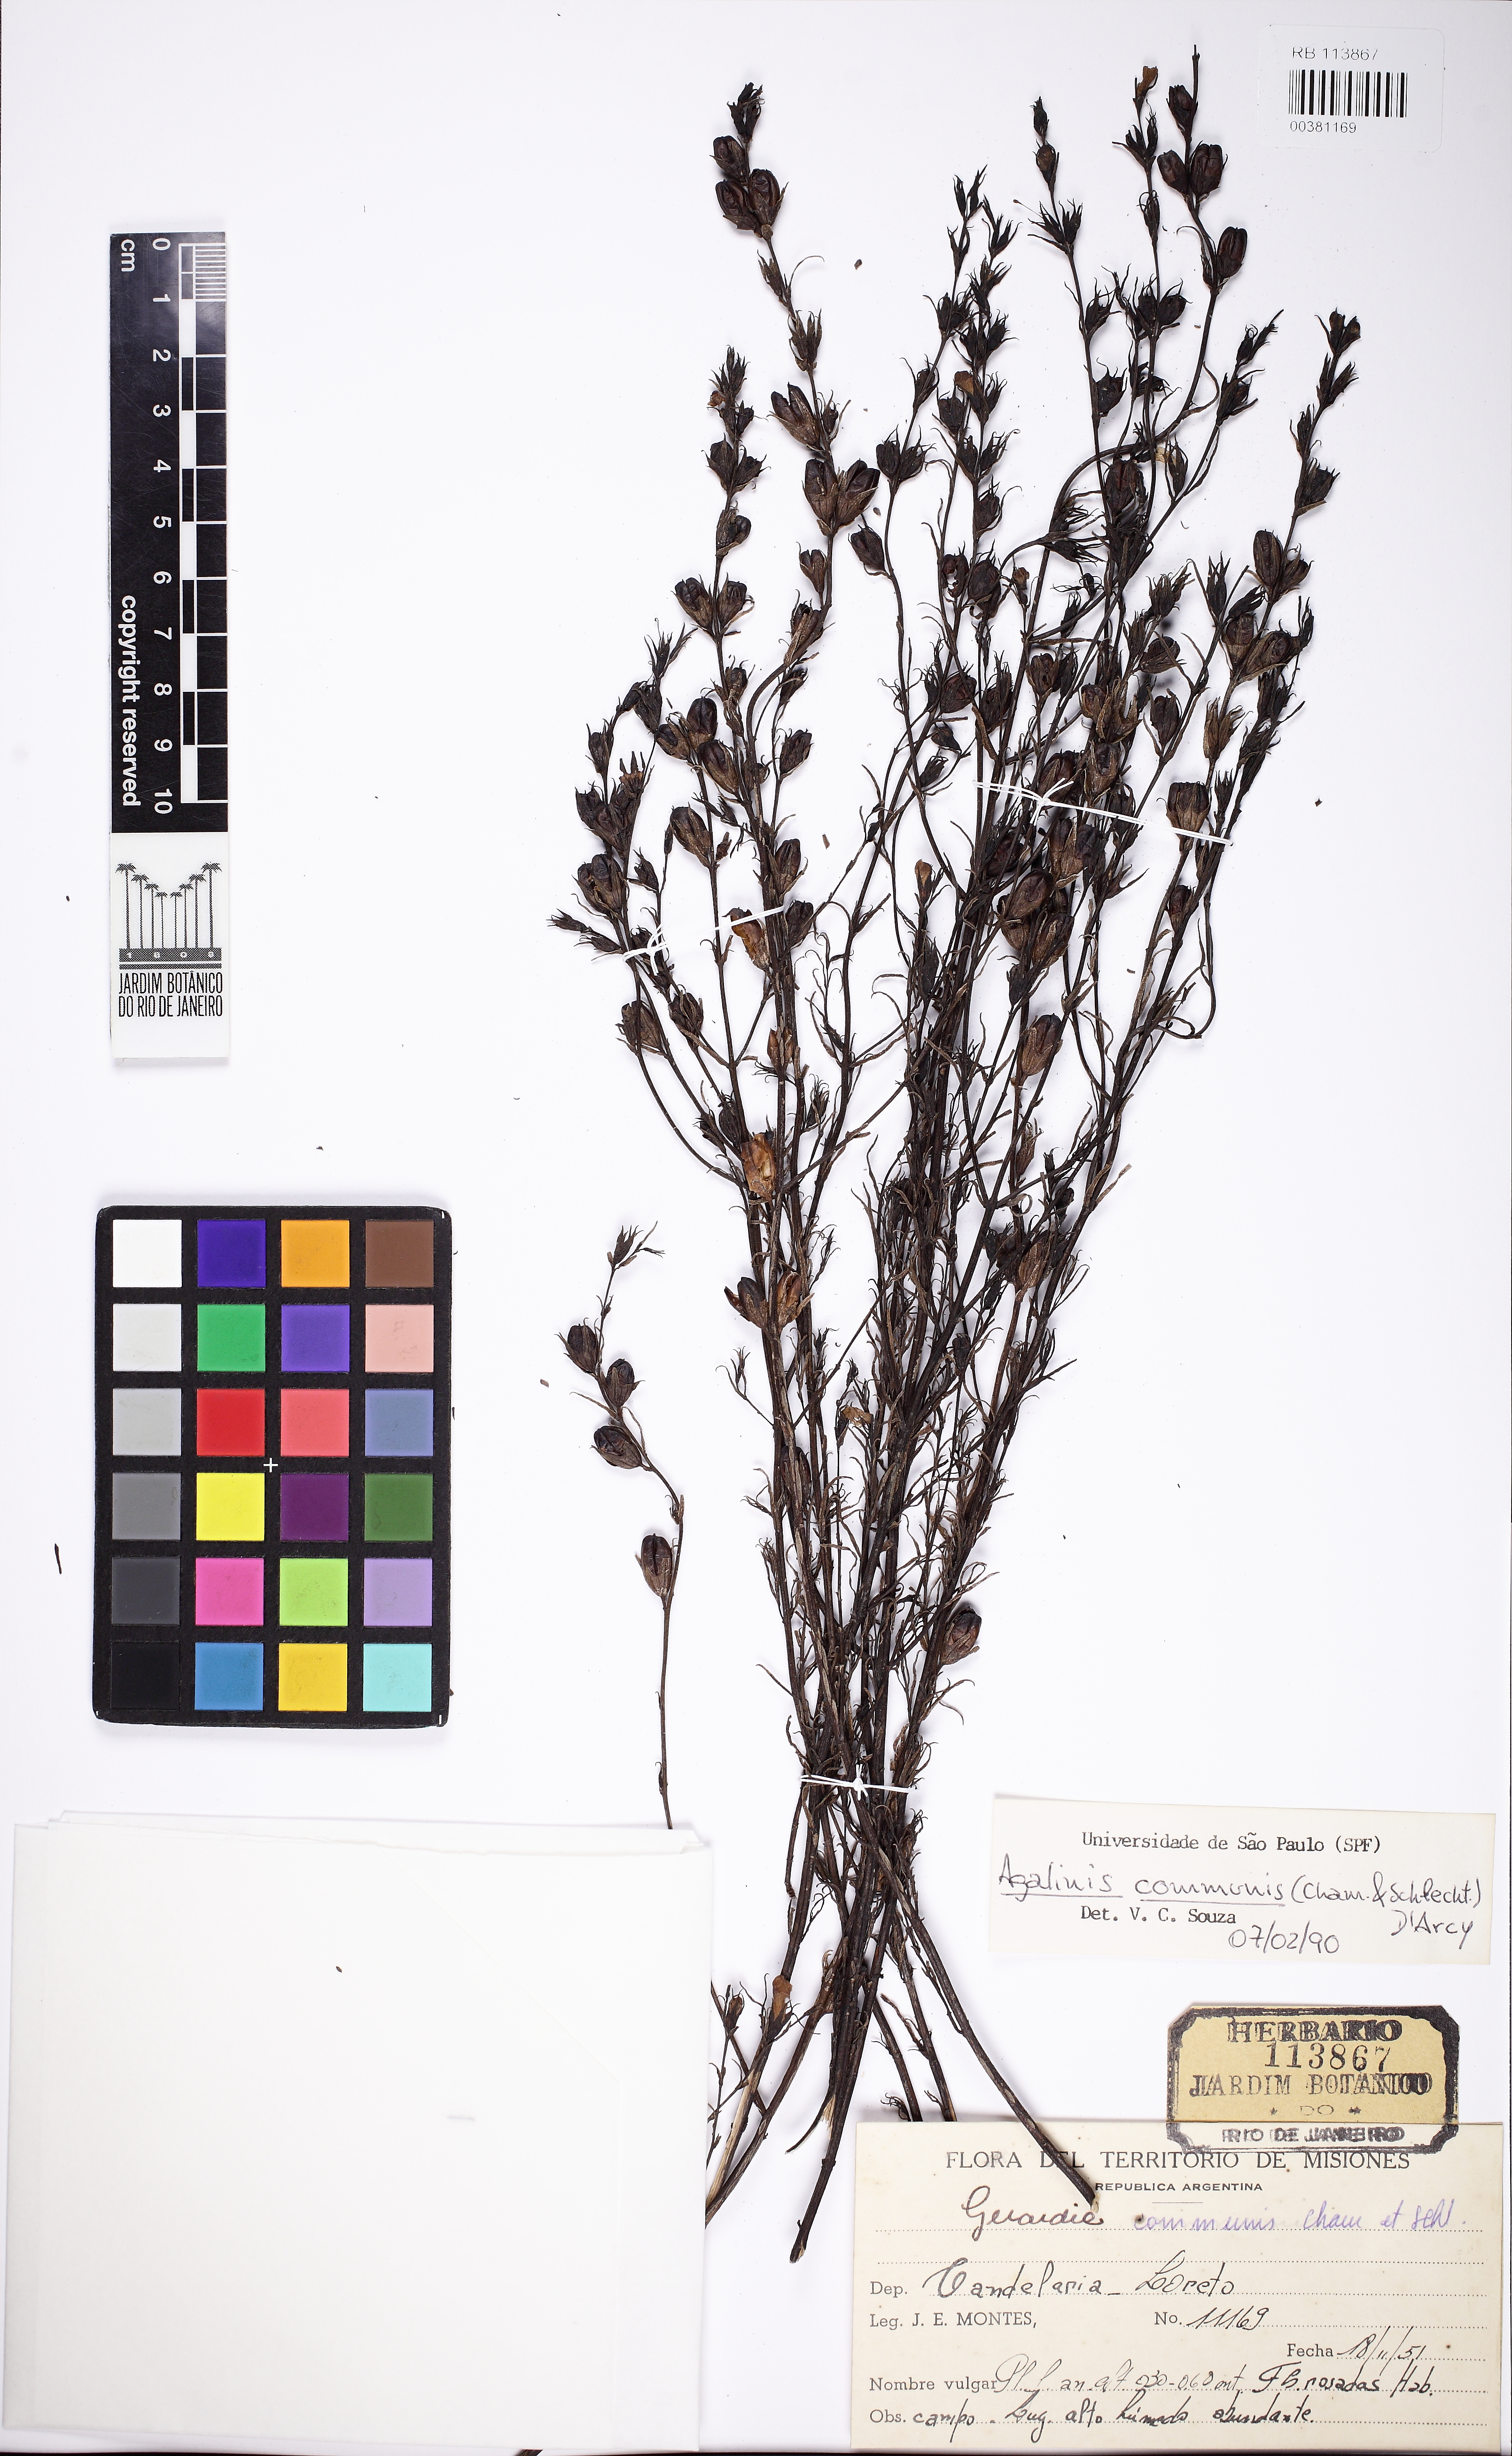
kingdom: Plantae
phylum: Tracheophyta
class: Magnoliopsida
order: Lamiales
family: Scrophulariaceae
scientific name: Scrophulariaceae
